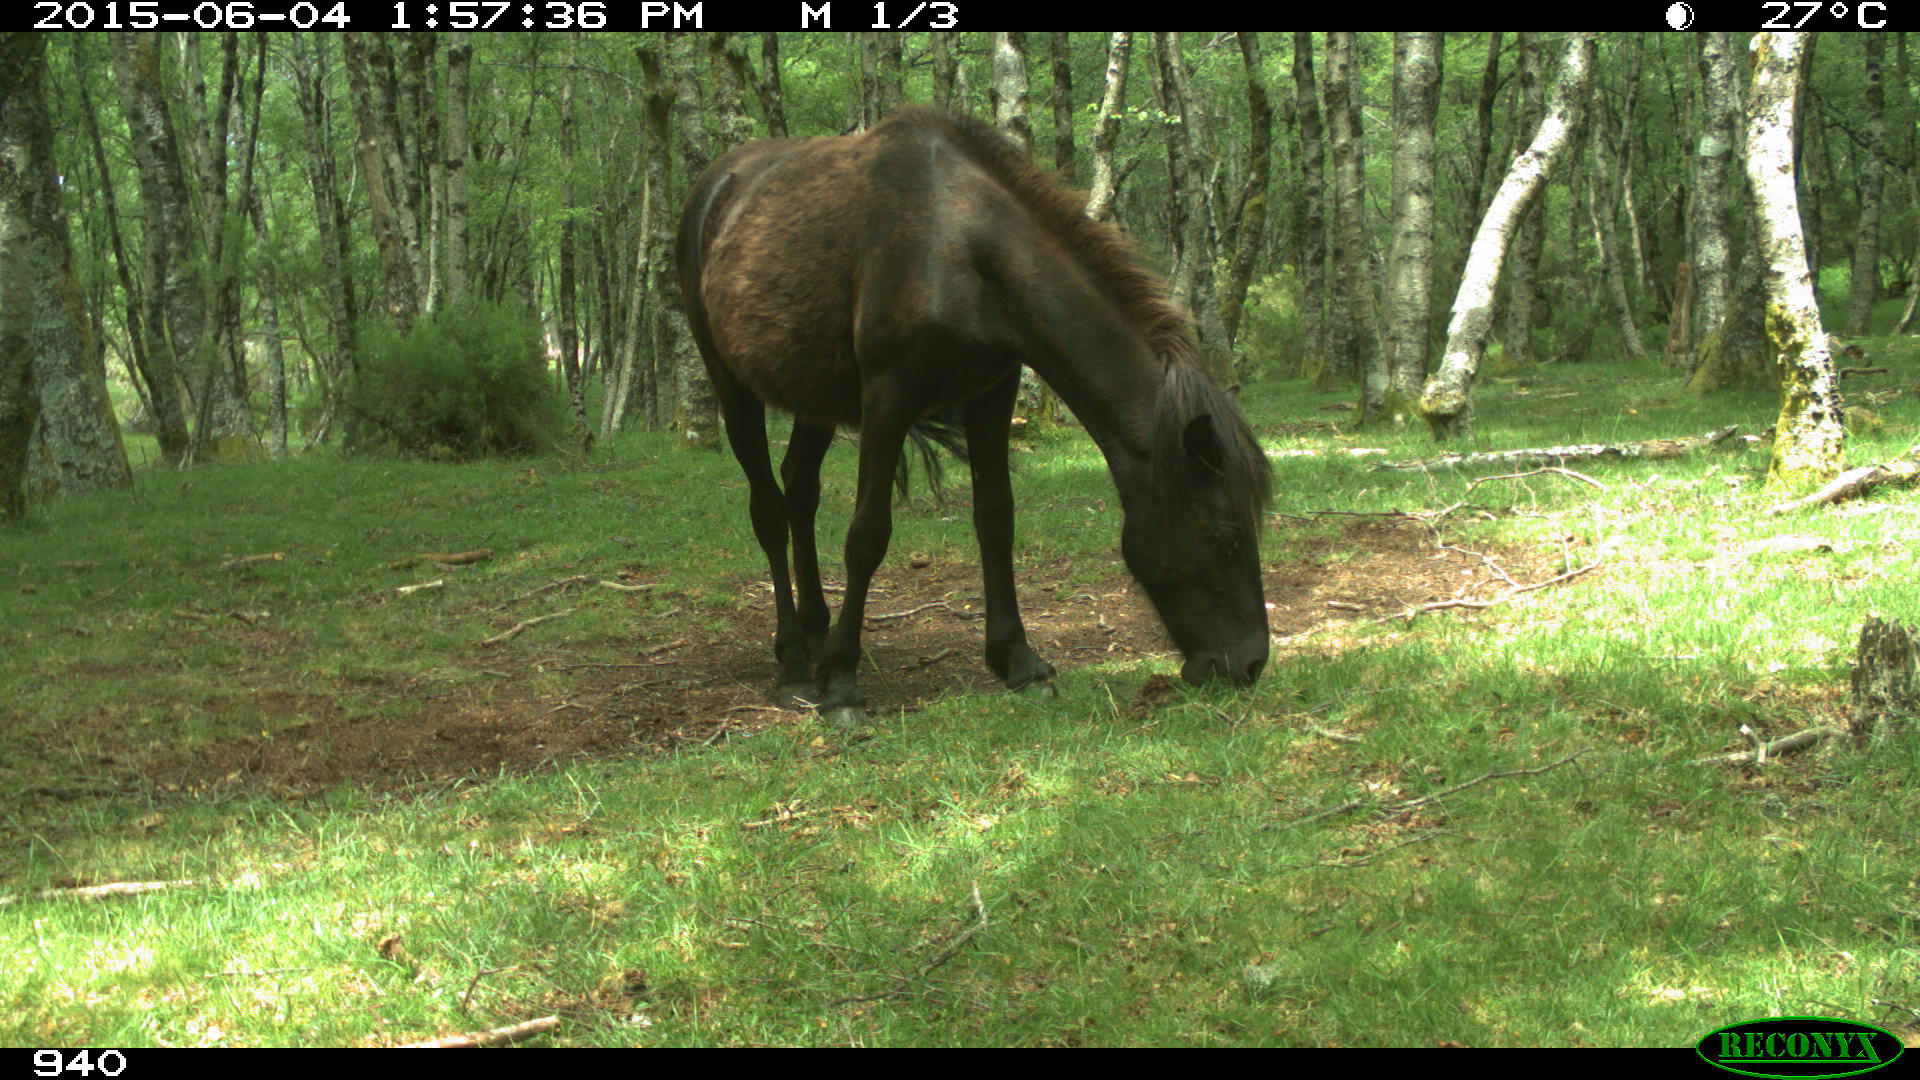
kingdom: Animalia
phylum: Chordata
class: Mammalia
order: Perissodactyla
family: Equidae
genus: Equus
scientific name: Equus caballus
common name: Horse
